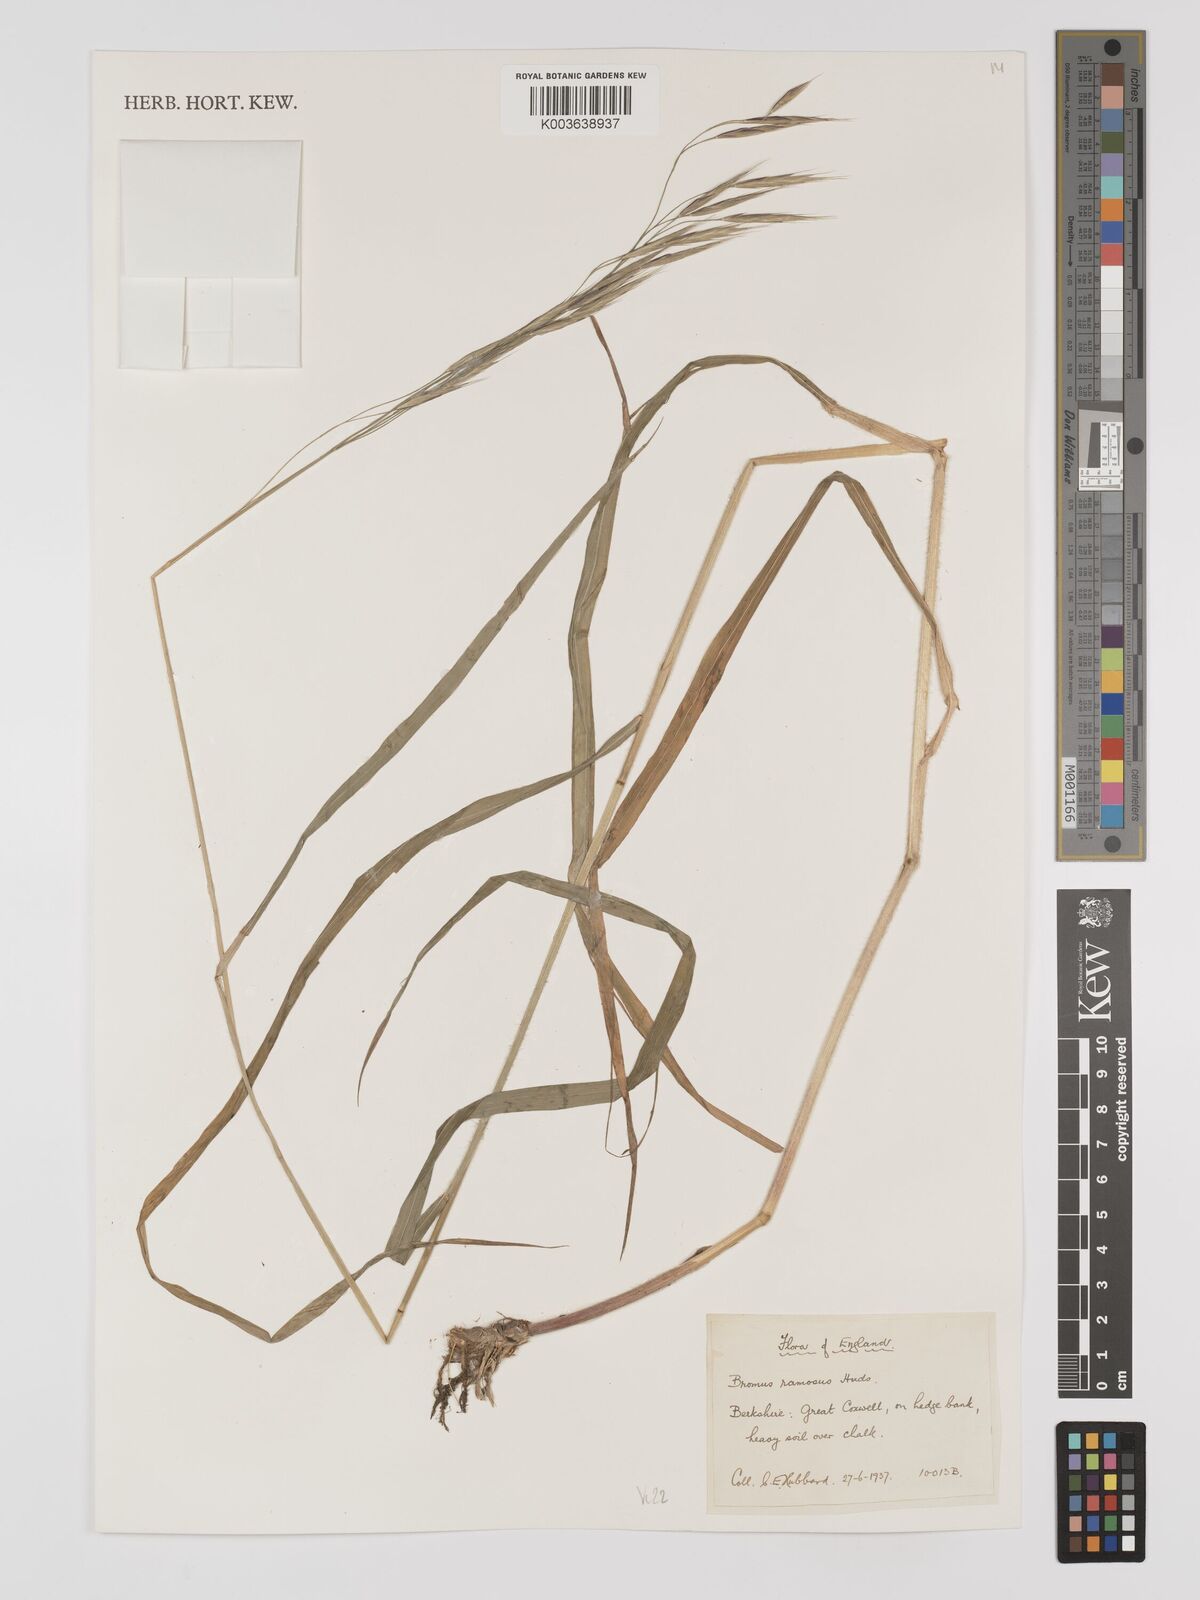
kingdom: Plantae
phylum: Tracheophyta
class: Liliopsida
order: Poales
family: Poaceae
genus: Bromus
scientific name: Bromus ramosus
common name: Hairy brome
